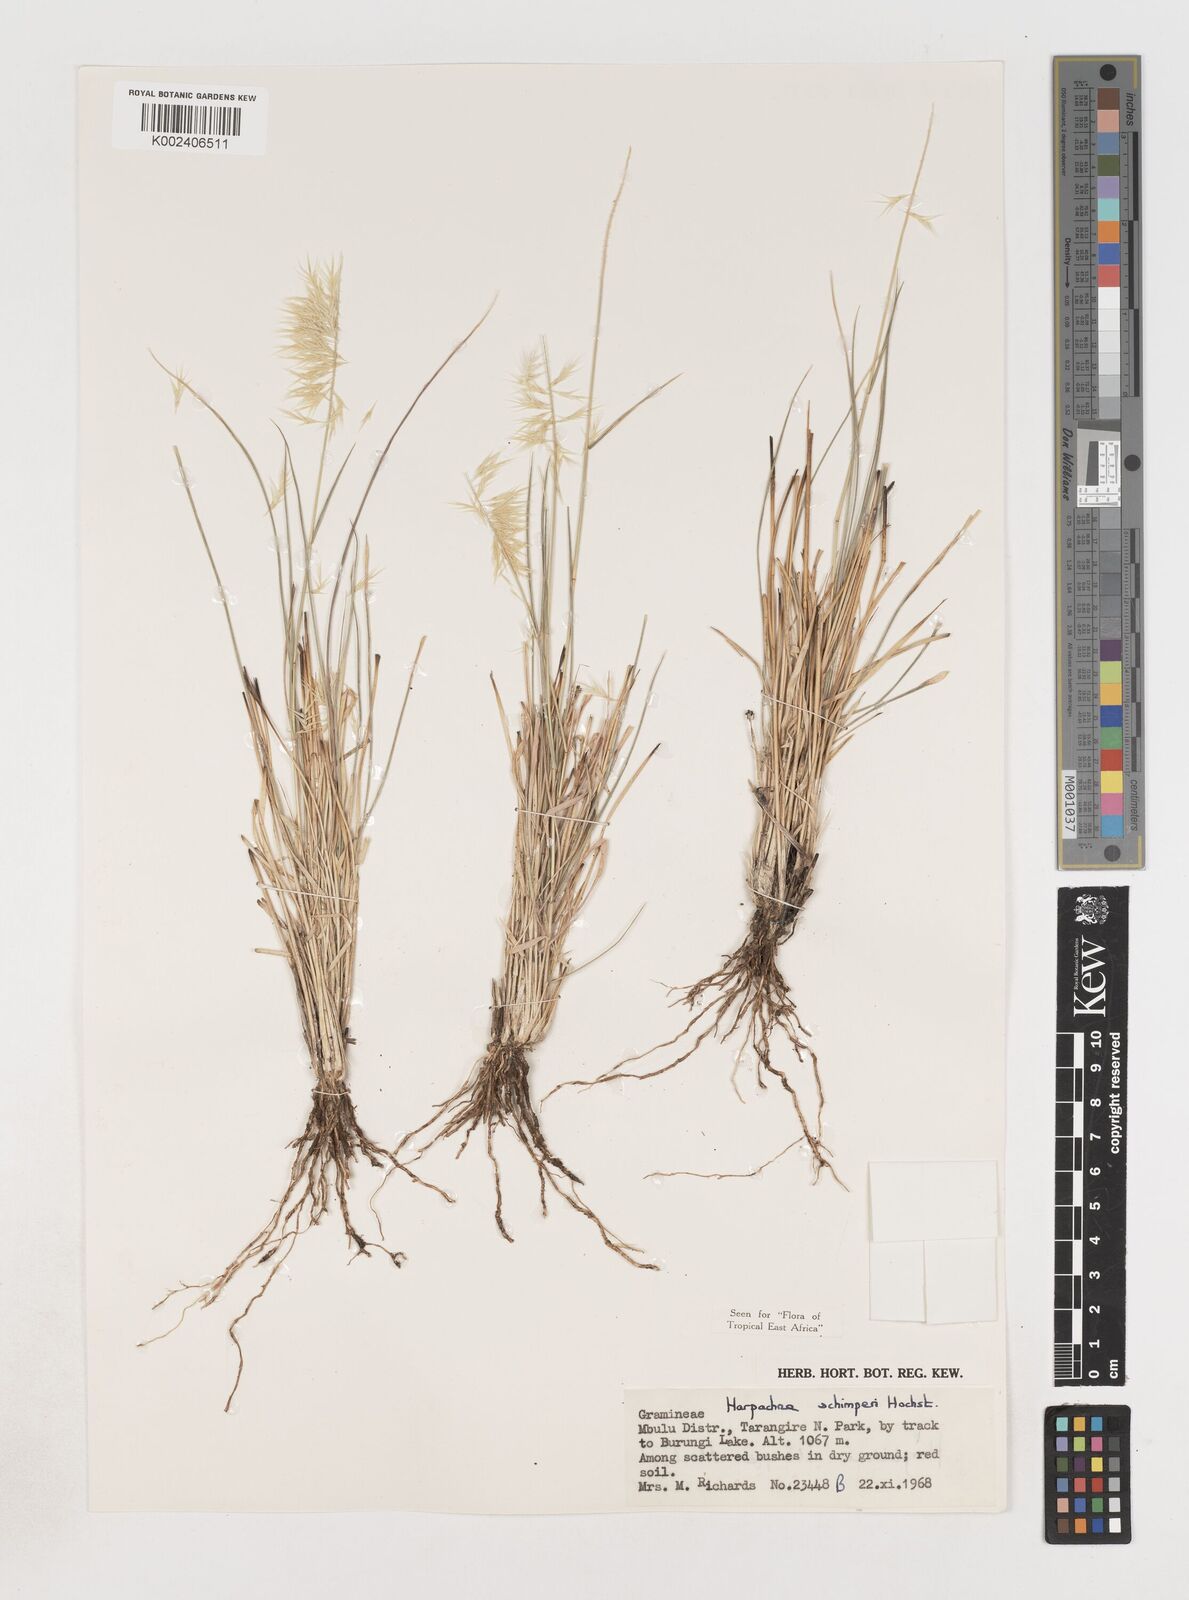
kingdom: Plantae
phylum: Tracheophyta
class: Liliopsida
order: Poales
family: Poaceae
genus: Harpachne
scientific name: Harpachne schimperi
